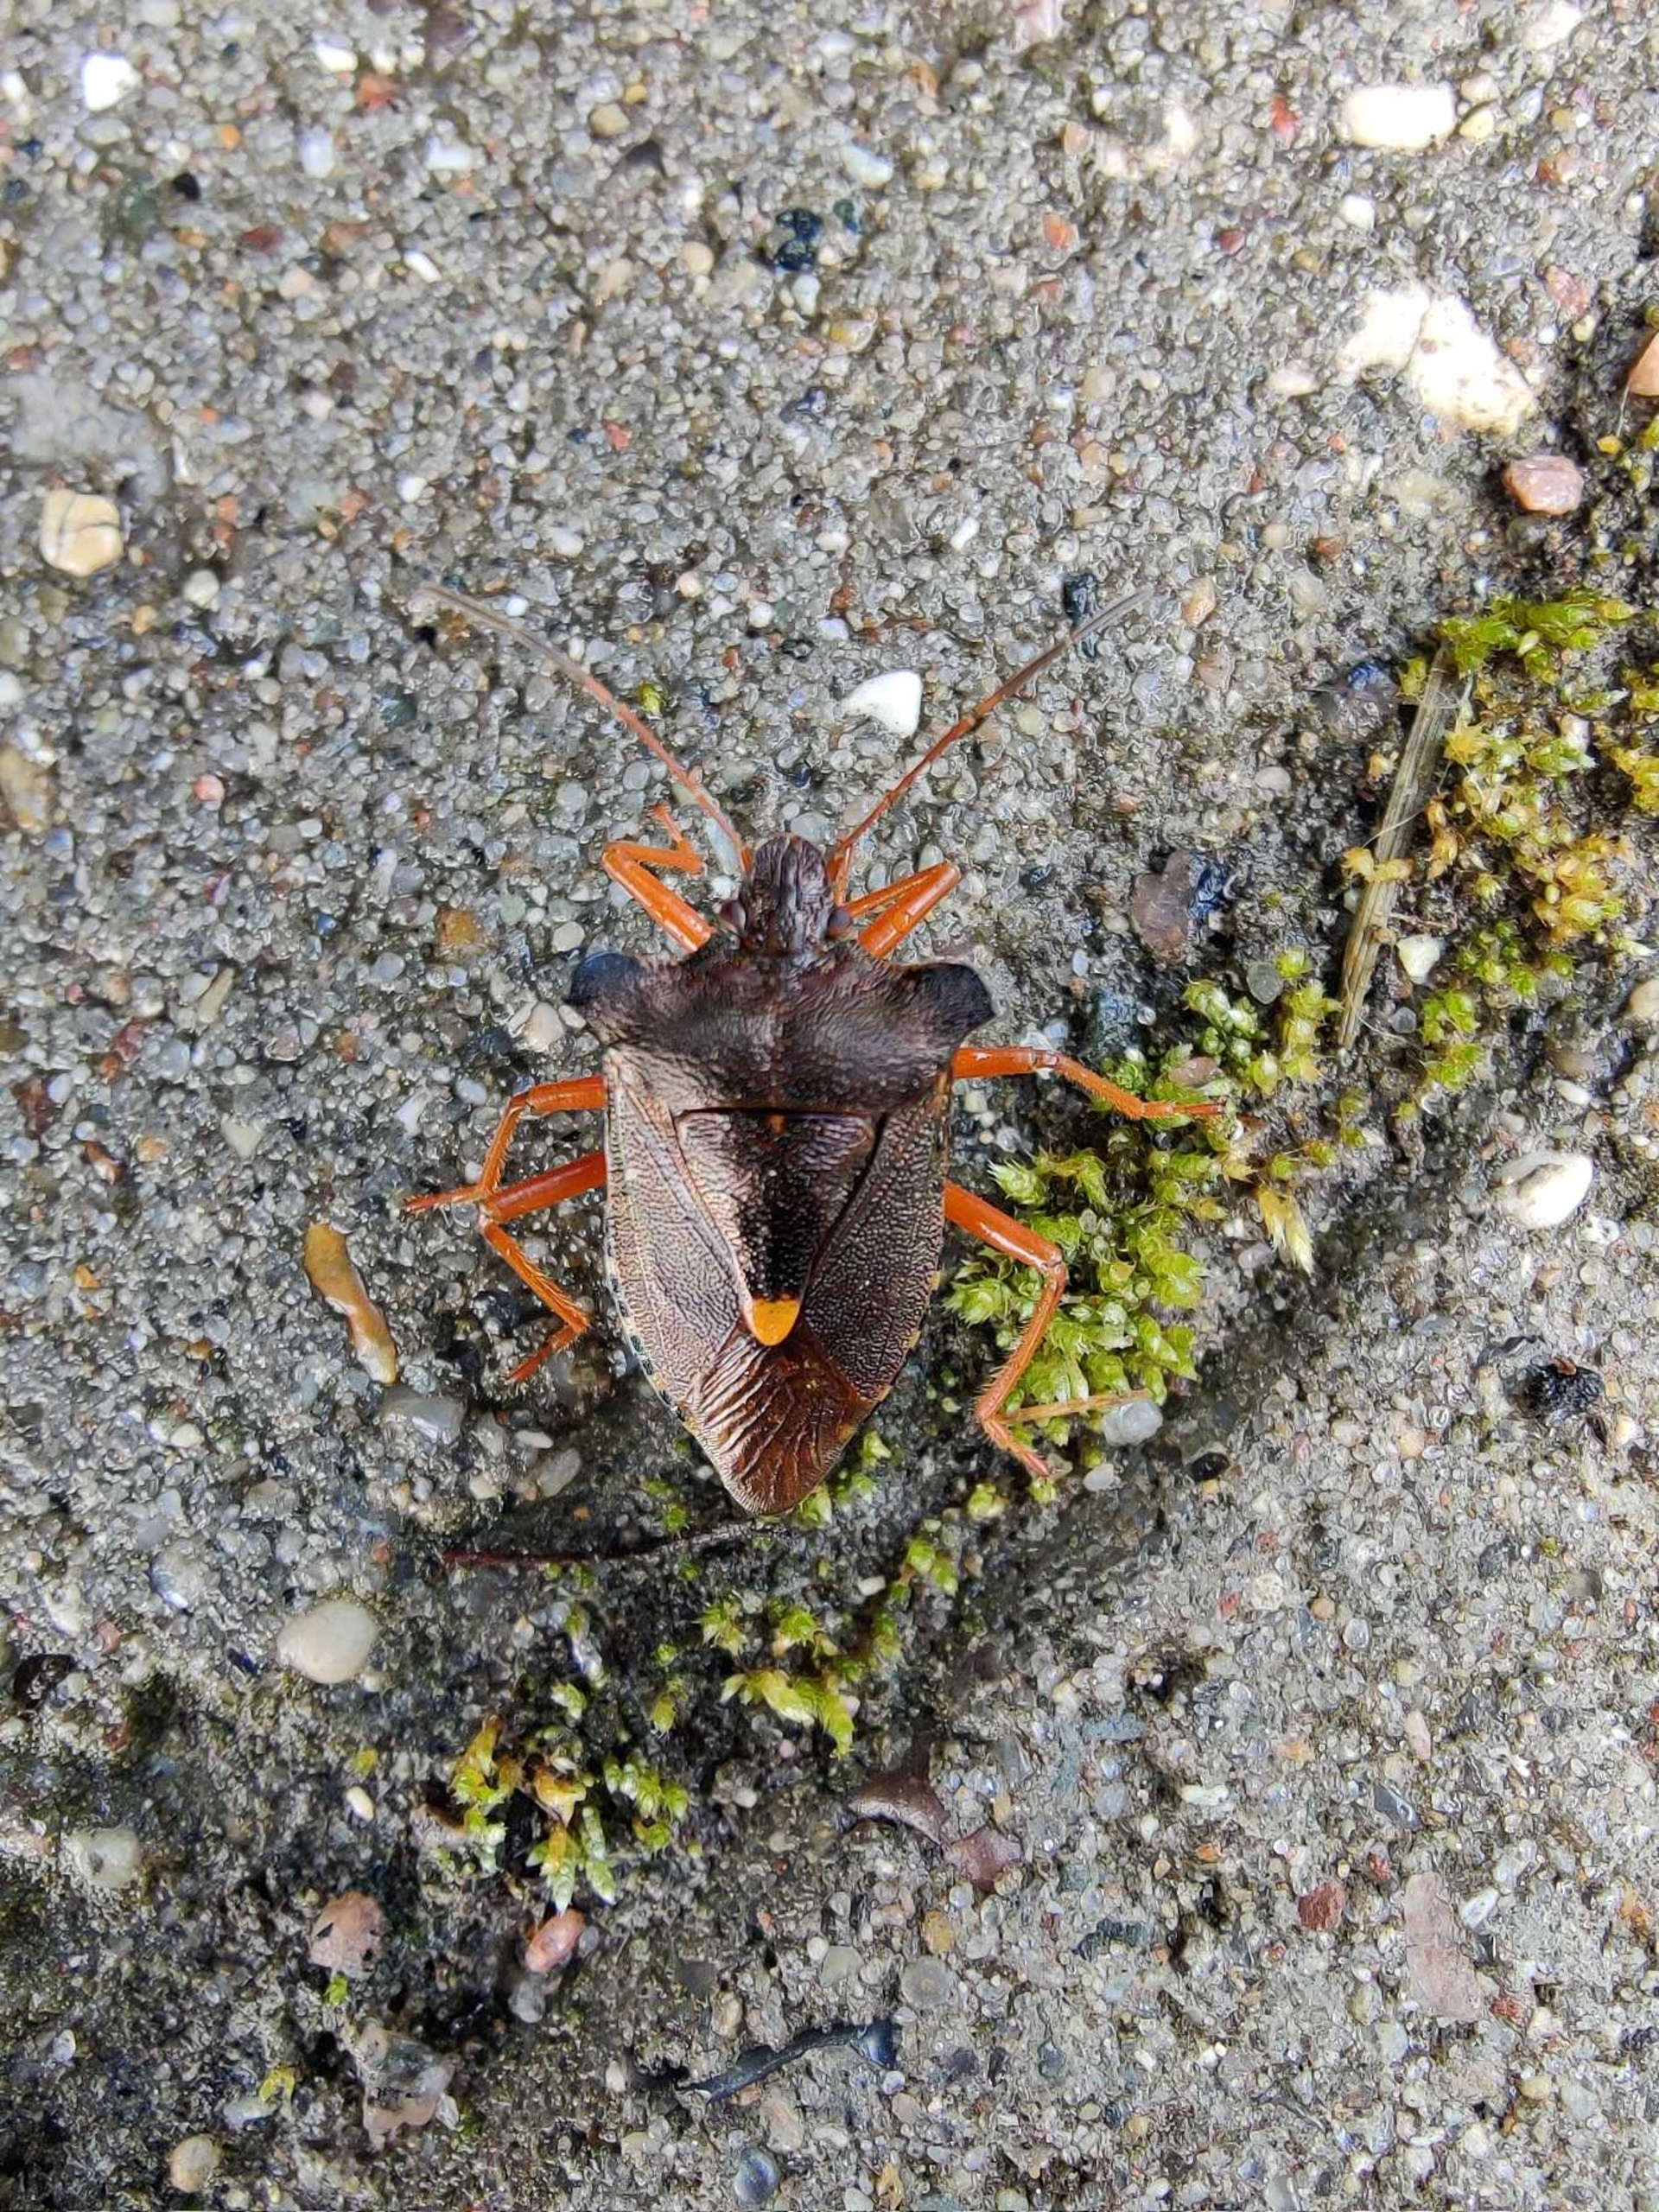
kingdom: Animalia
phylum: Arthropoda
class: Insecta
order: Hemiptera
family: Pentatomidae
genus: Pentatoma
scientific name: Pentatoma rufipes
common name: Rødbenet bredtæge
